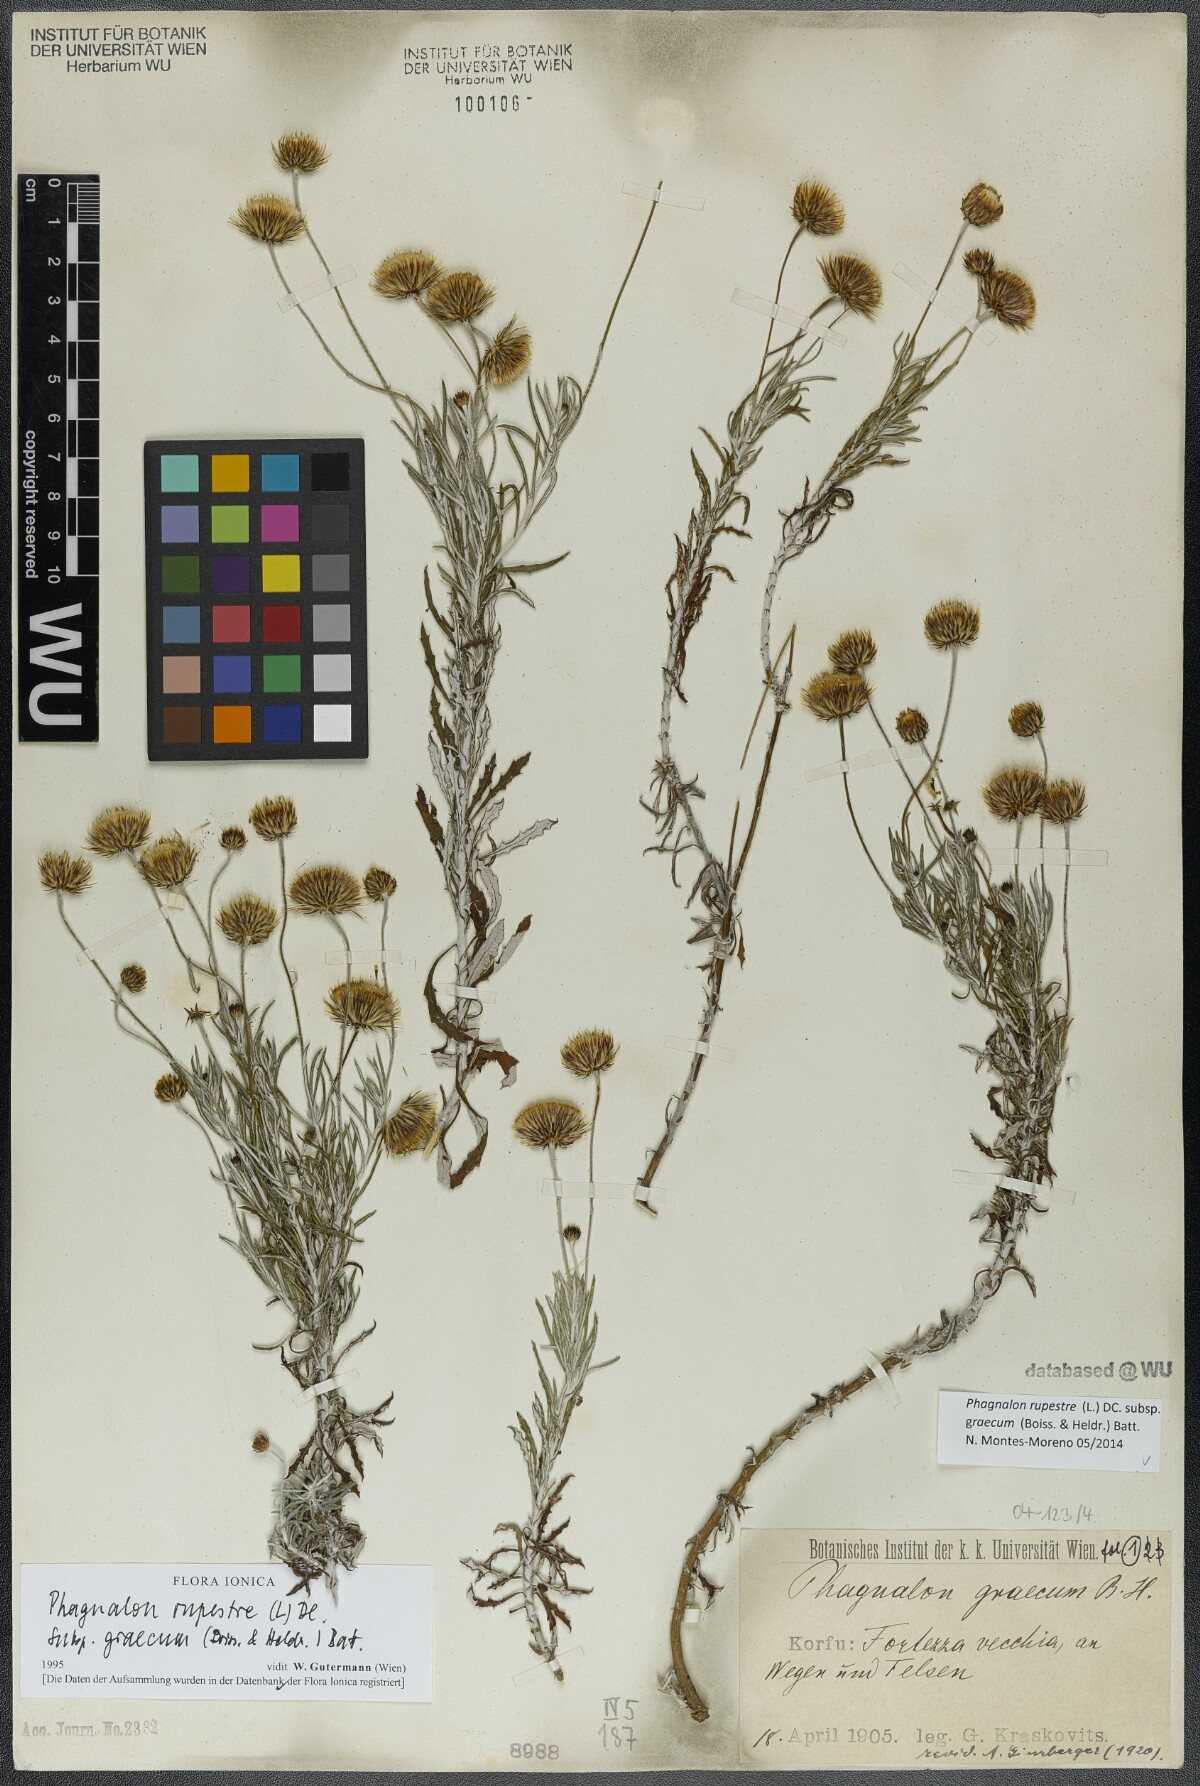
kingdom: Plantae
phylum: Tracheophyta
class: Magnoliopsida
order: Asterales
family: Asteraceae
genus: Phagnalon
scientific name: Phagnalon graecum
